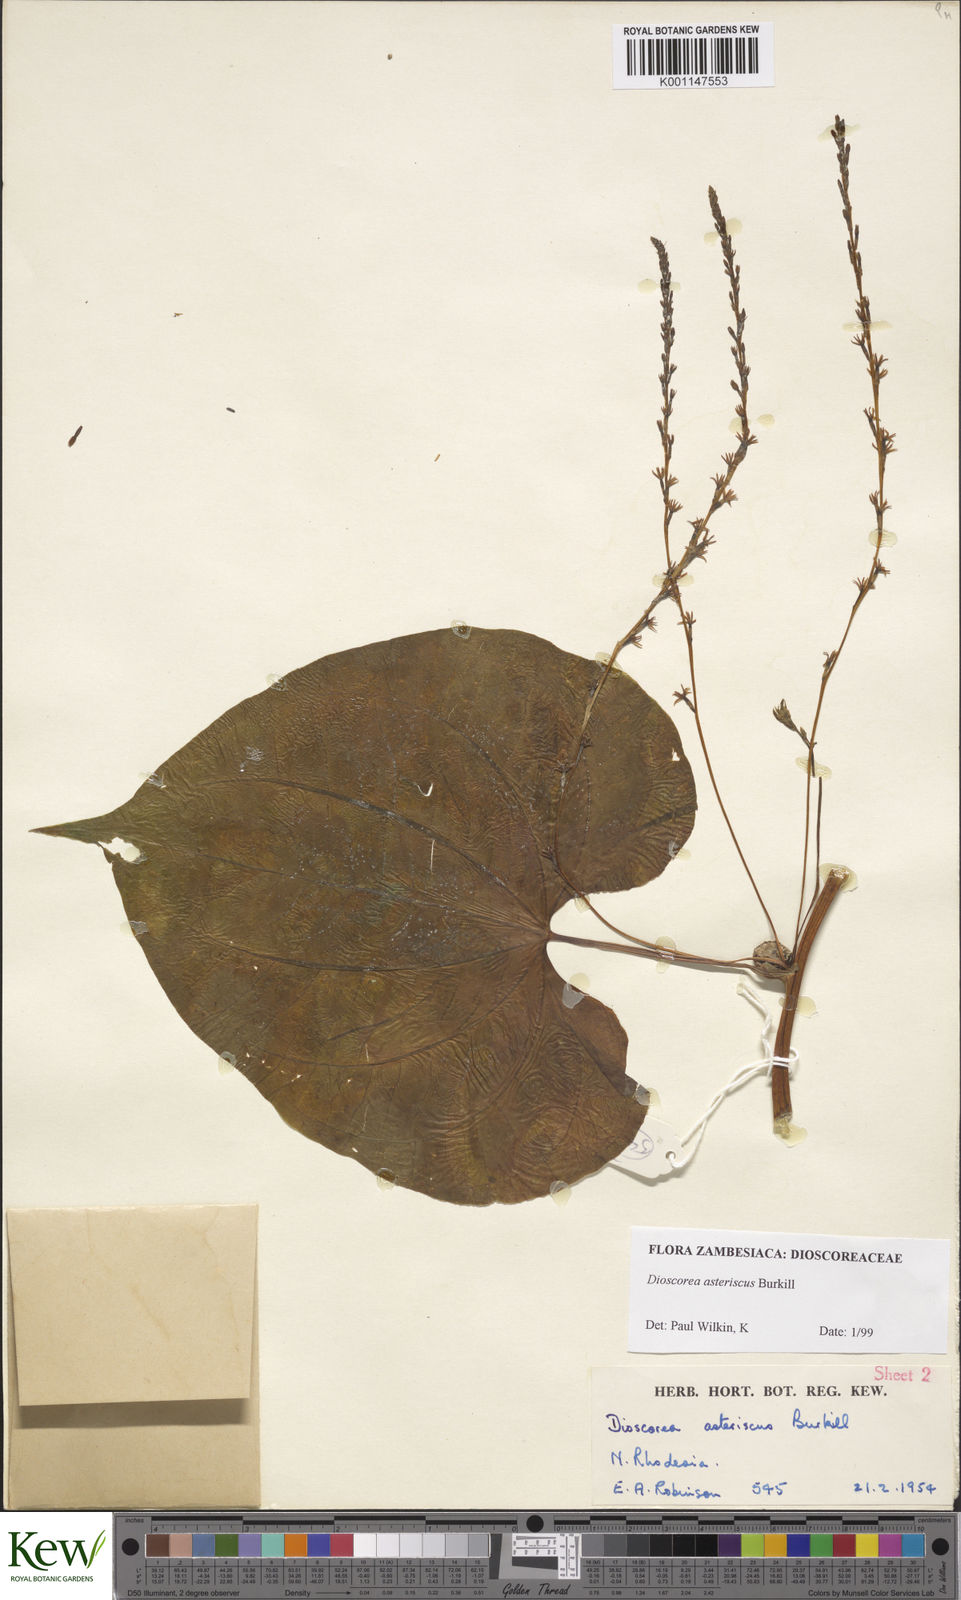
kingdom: Plantae
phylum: Tracheophyta
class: Liliopsida
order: Dioscoreales
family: Dioscoreaceae
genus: Dioscorea
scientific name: Dioscorea asteriscus
